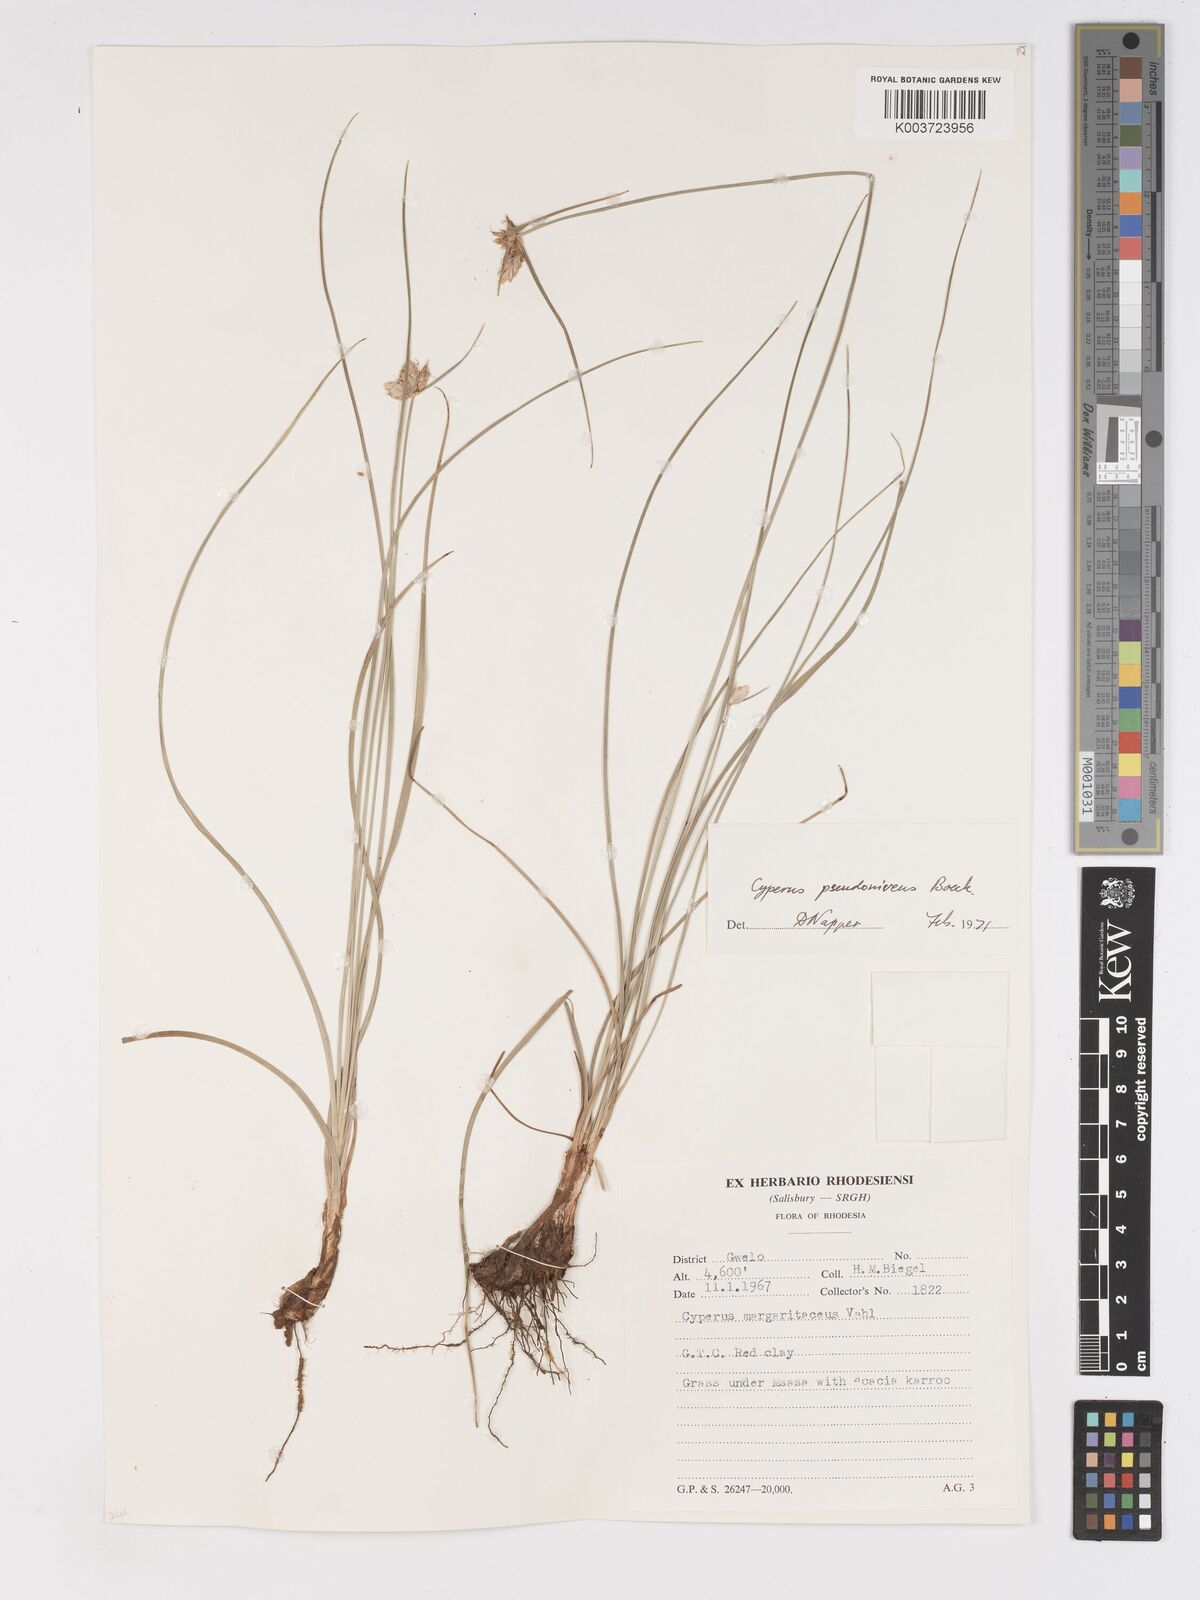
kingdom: Plantae
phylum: Tracheophyta
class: Liliopsida
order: Poales
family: Cyperaceae
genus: Cyperus
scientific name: Cyperus margaritaceus
